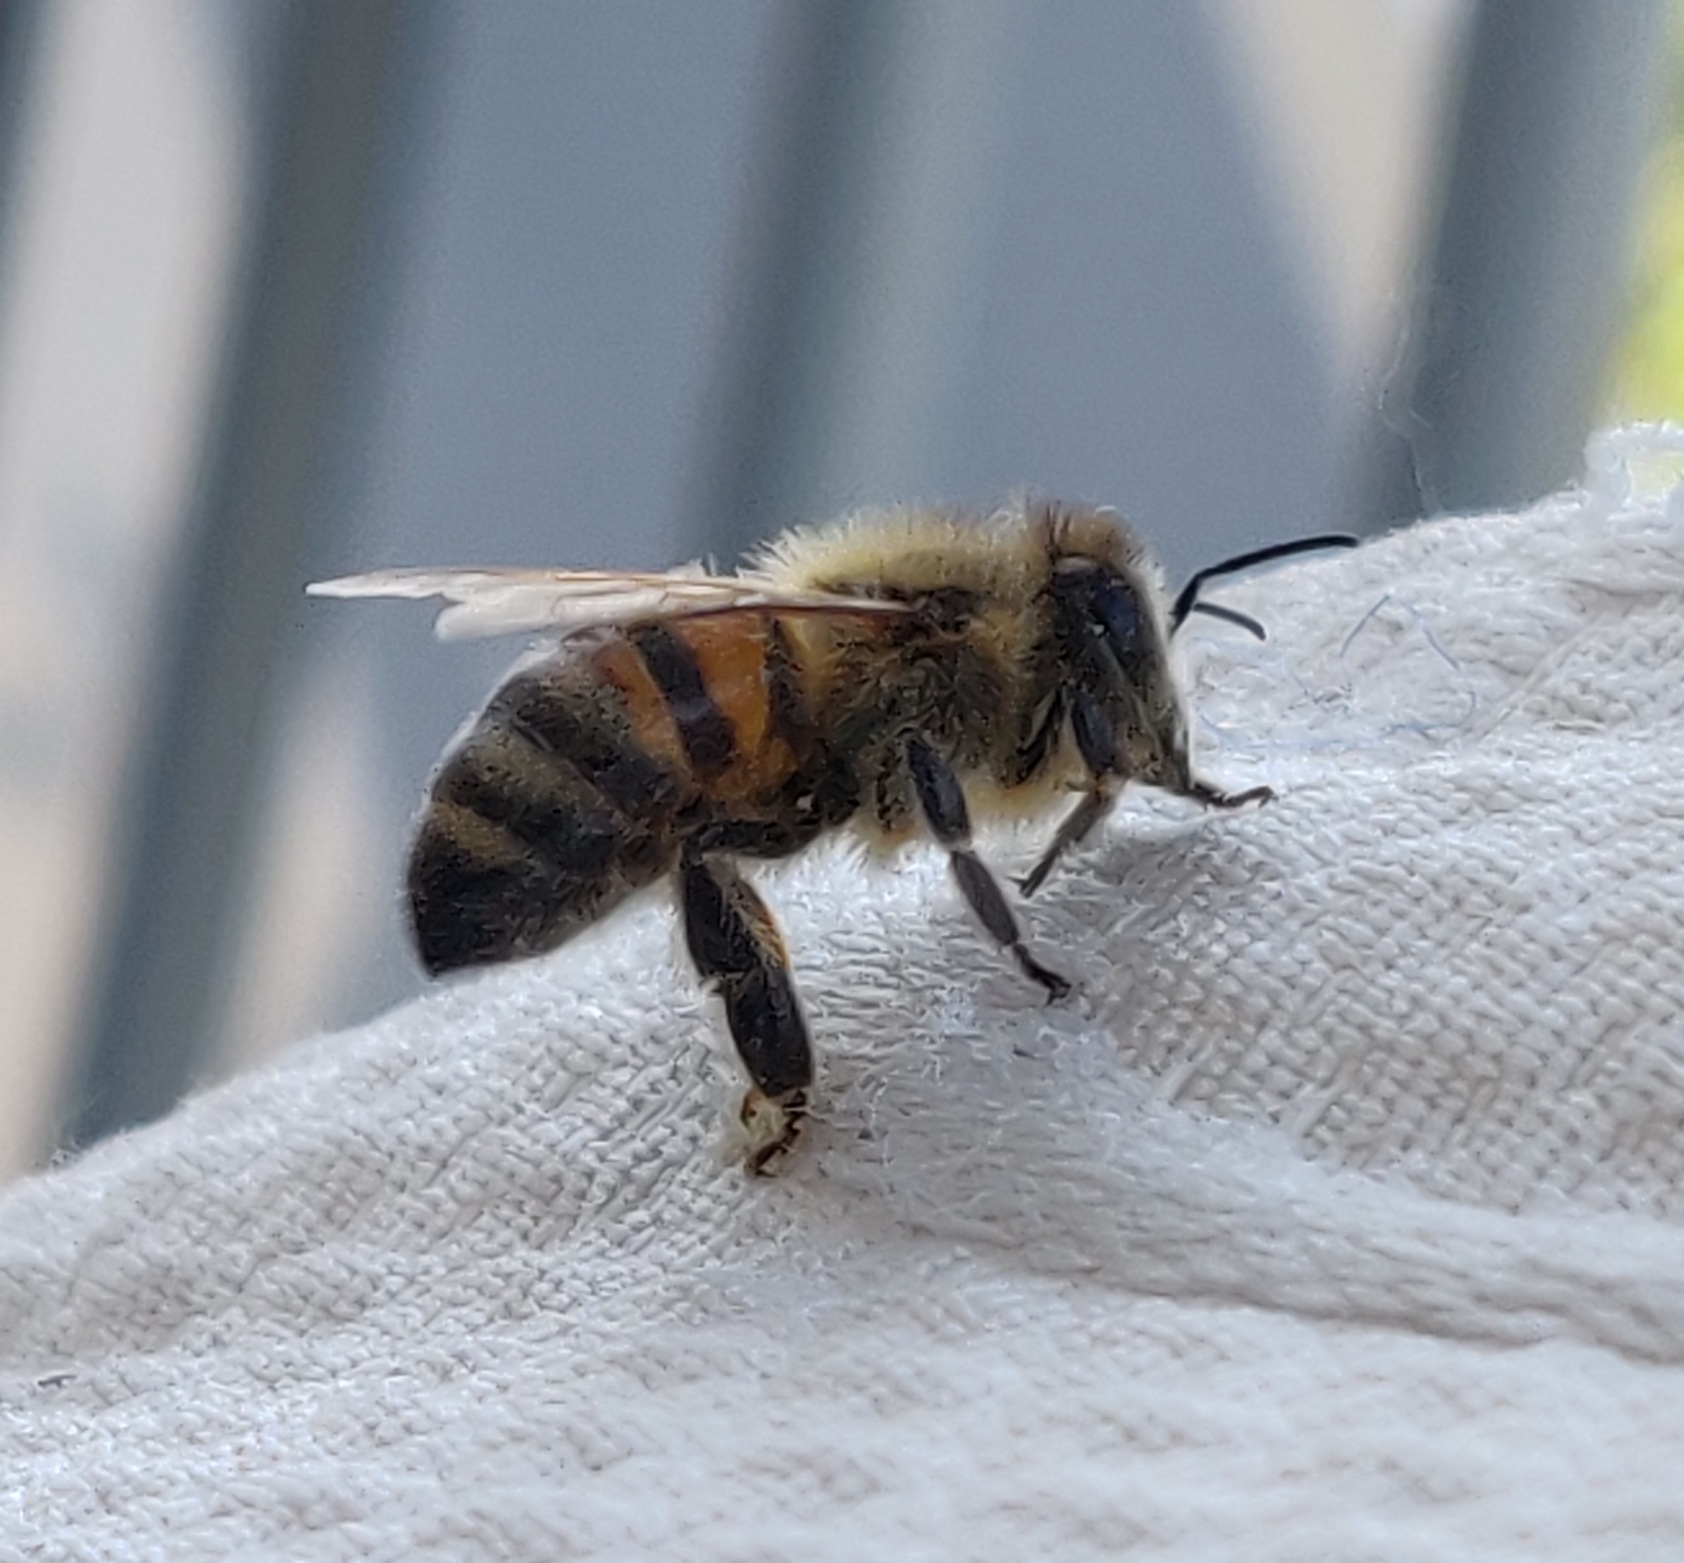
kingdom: Animalia
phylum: Arthropoda
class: Insecta
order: Hymenoptera
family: Apidae
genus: Apis
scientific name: Apis mellifera
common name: Honningbi
